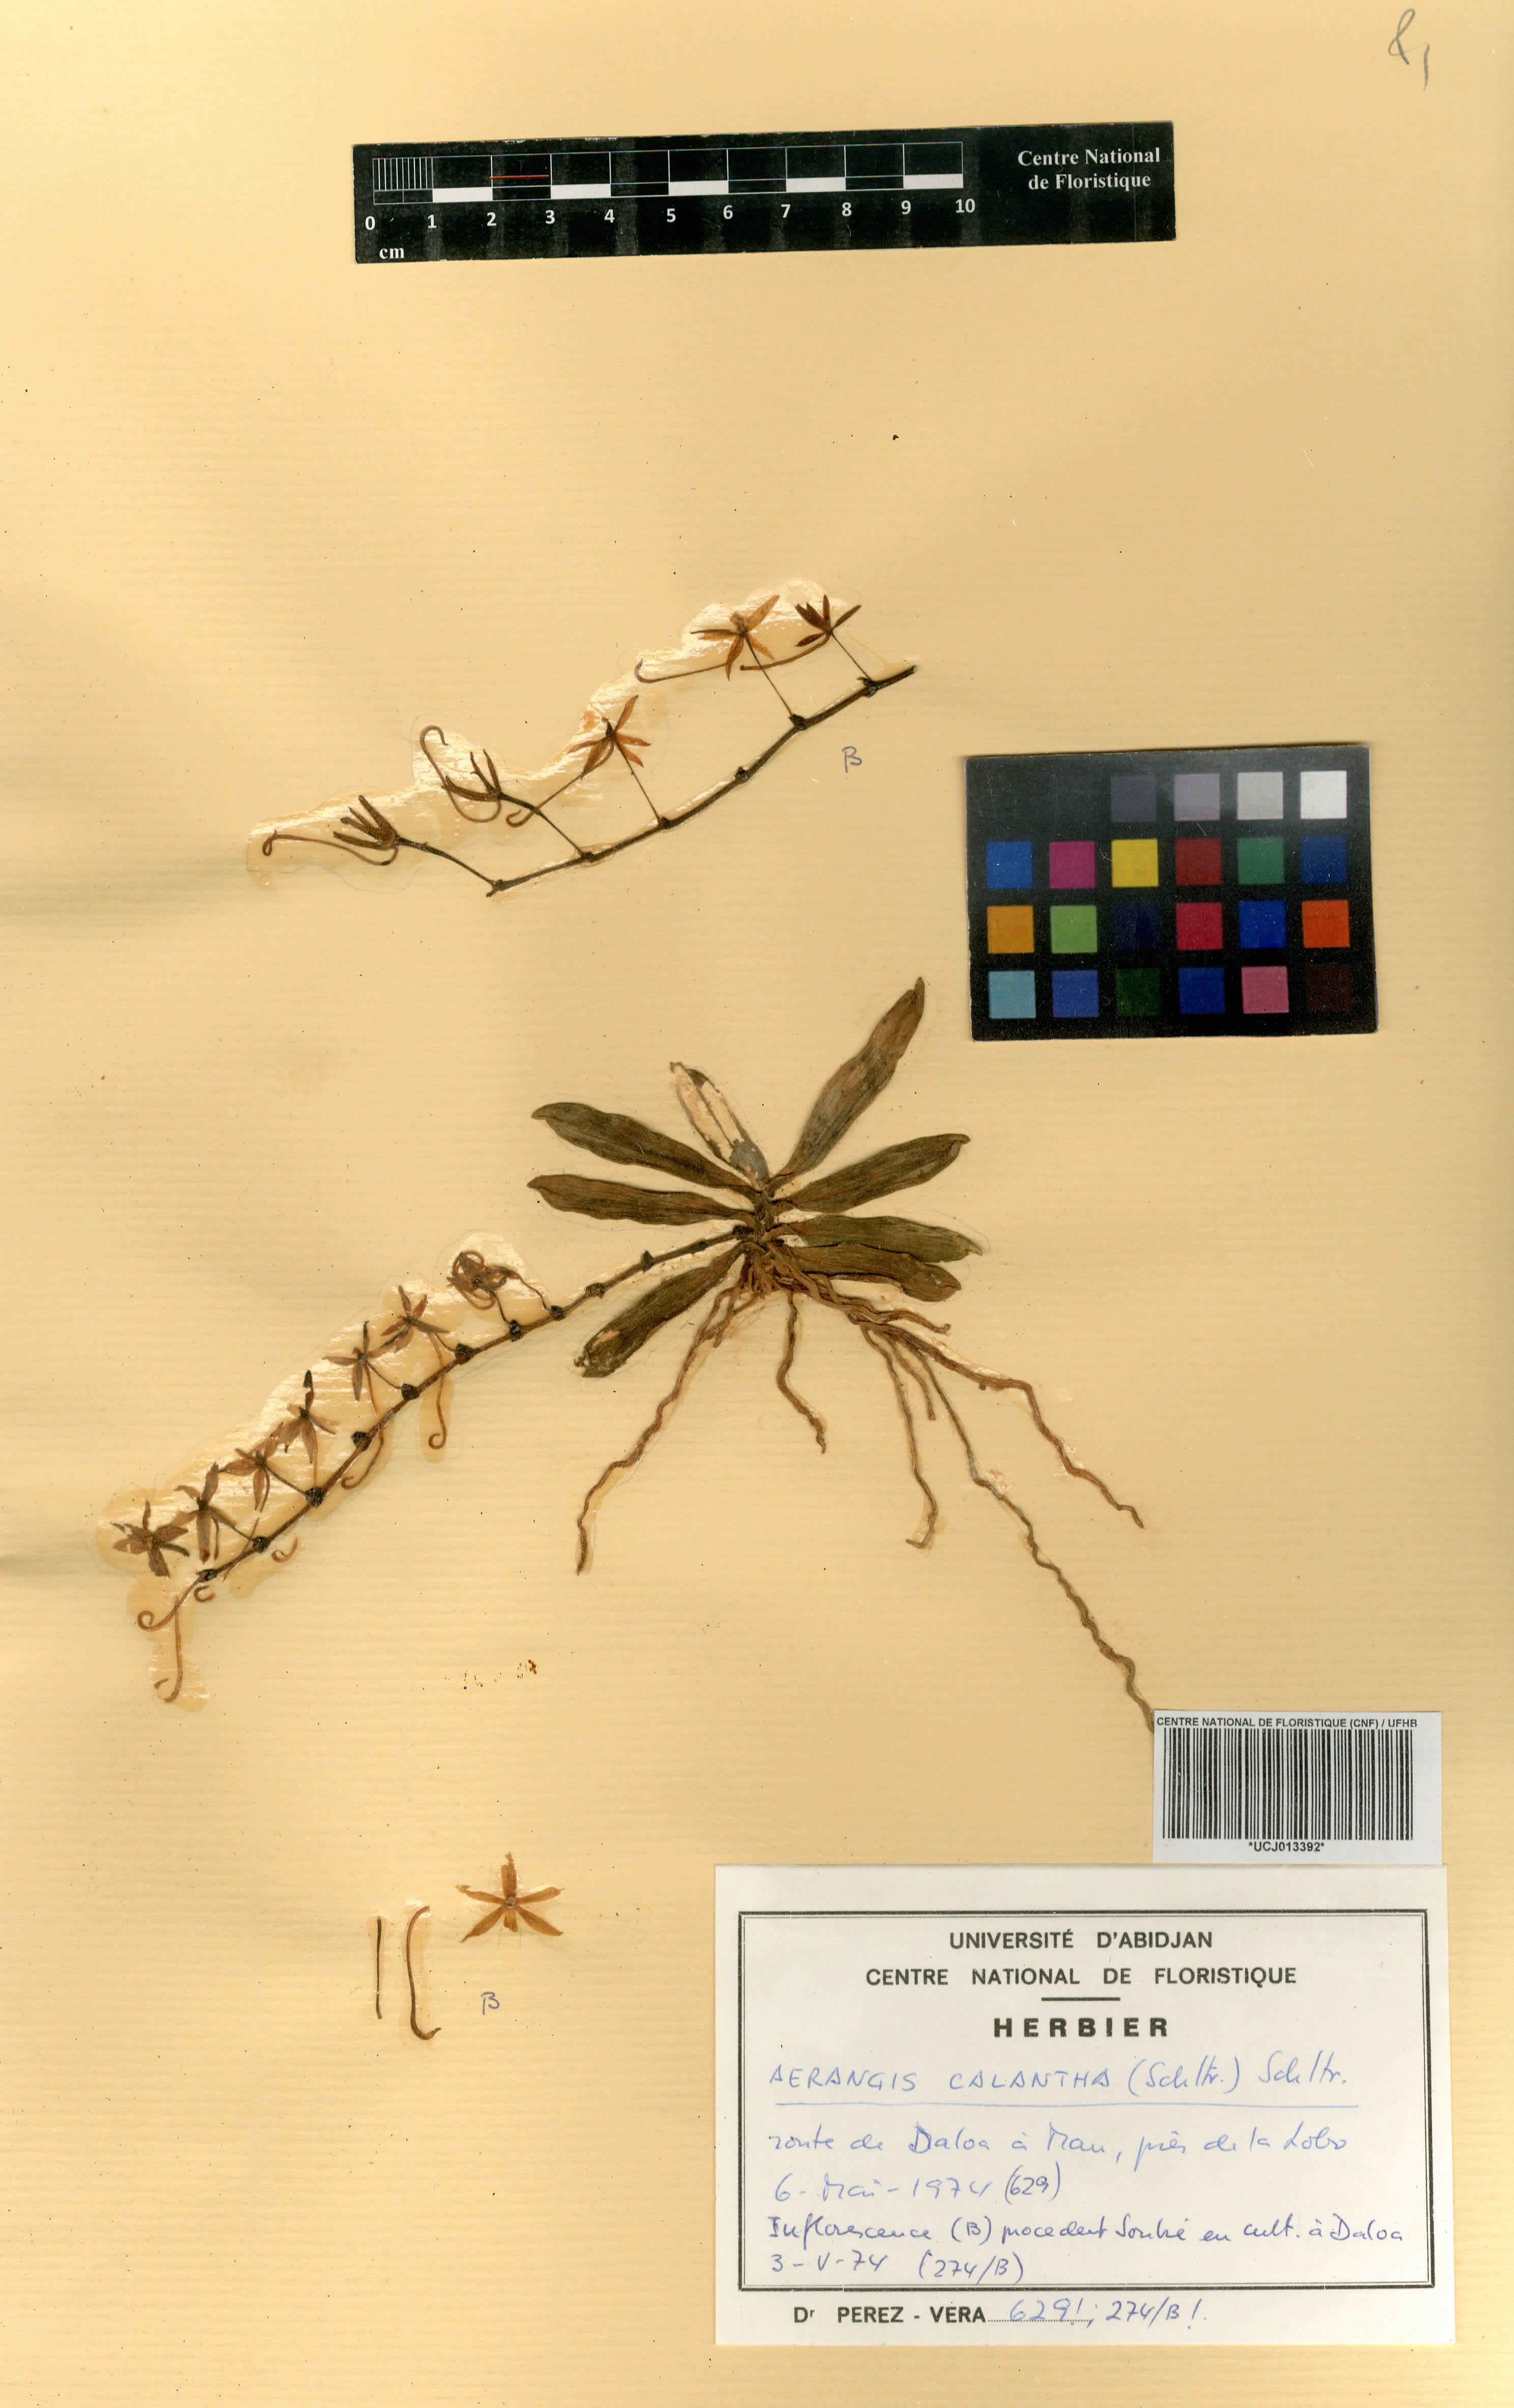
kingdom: Plantae
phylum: Tracheophyta
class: Liliopsida
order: Asparagales
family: Orchidaceae
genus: Aerangis
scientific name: Aerangis calantha
